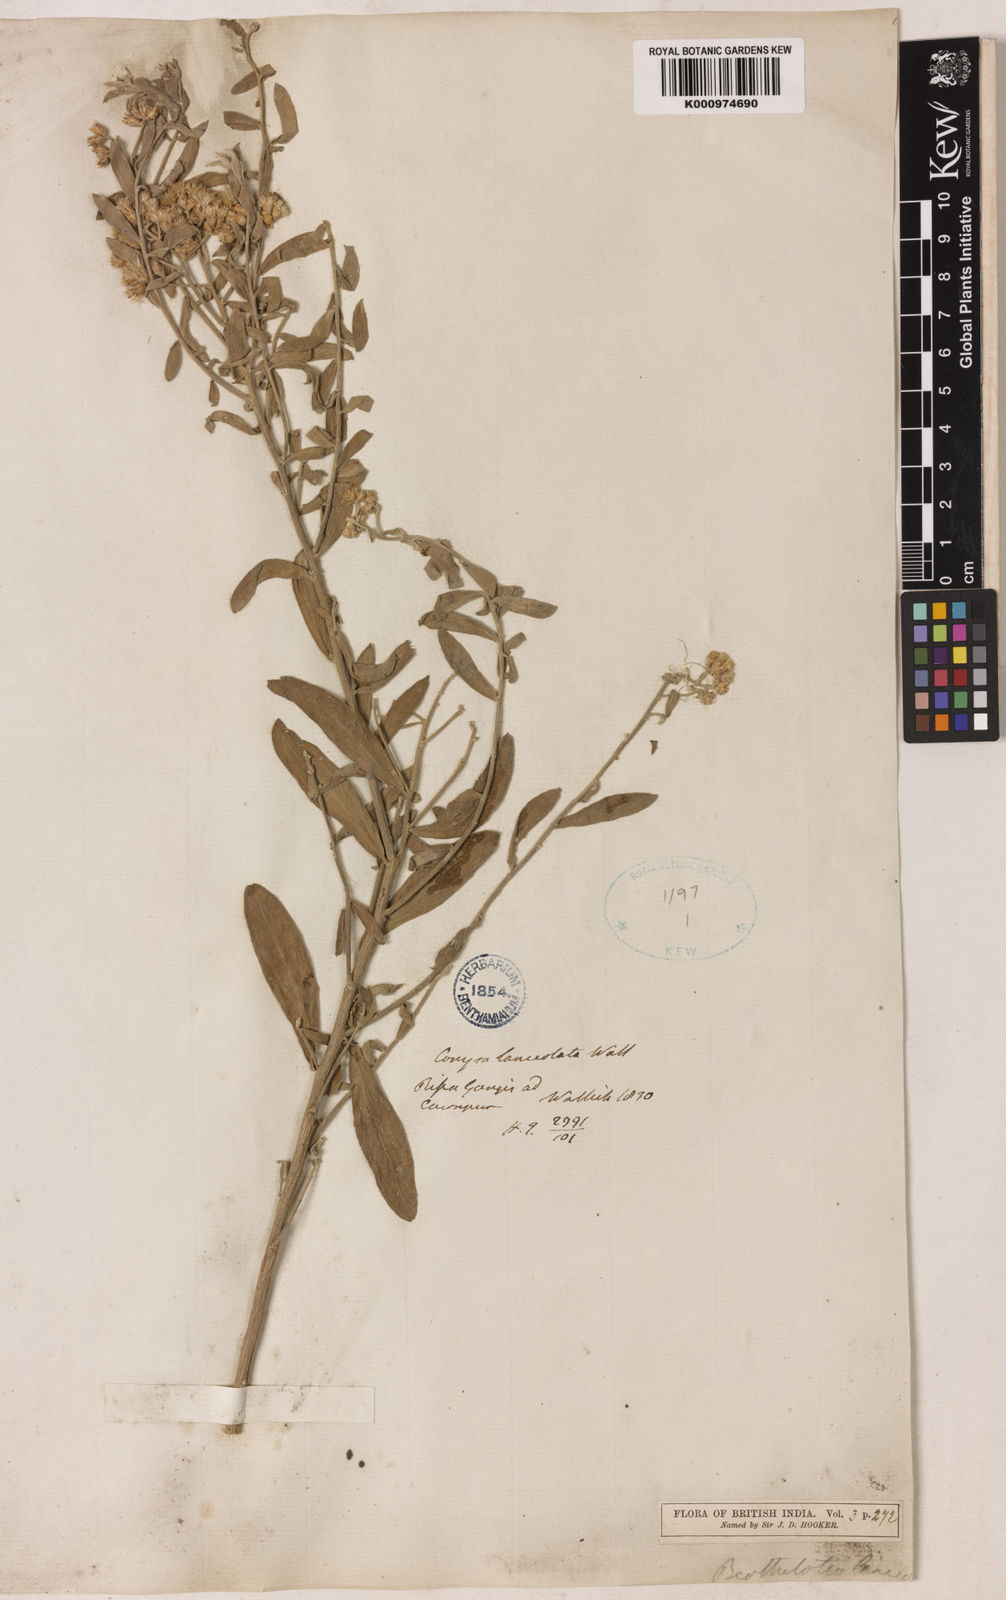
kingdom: Plantae
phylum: Tracheophyta
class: Magnoliopsida
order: Asterales
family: Asteraceae
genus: Pluchea
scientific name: Pluchea lanceolata
